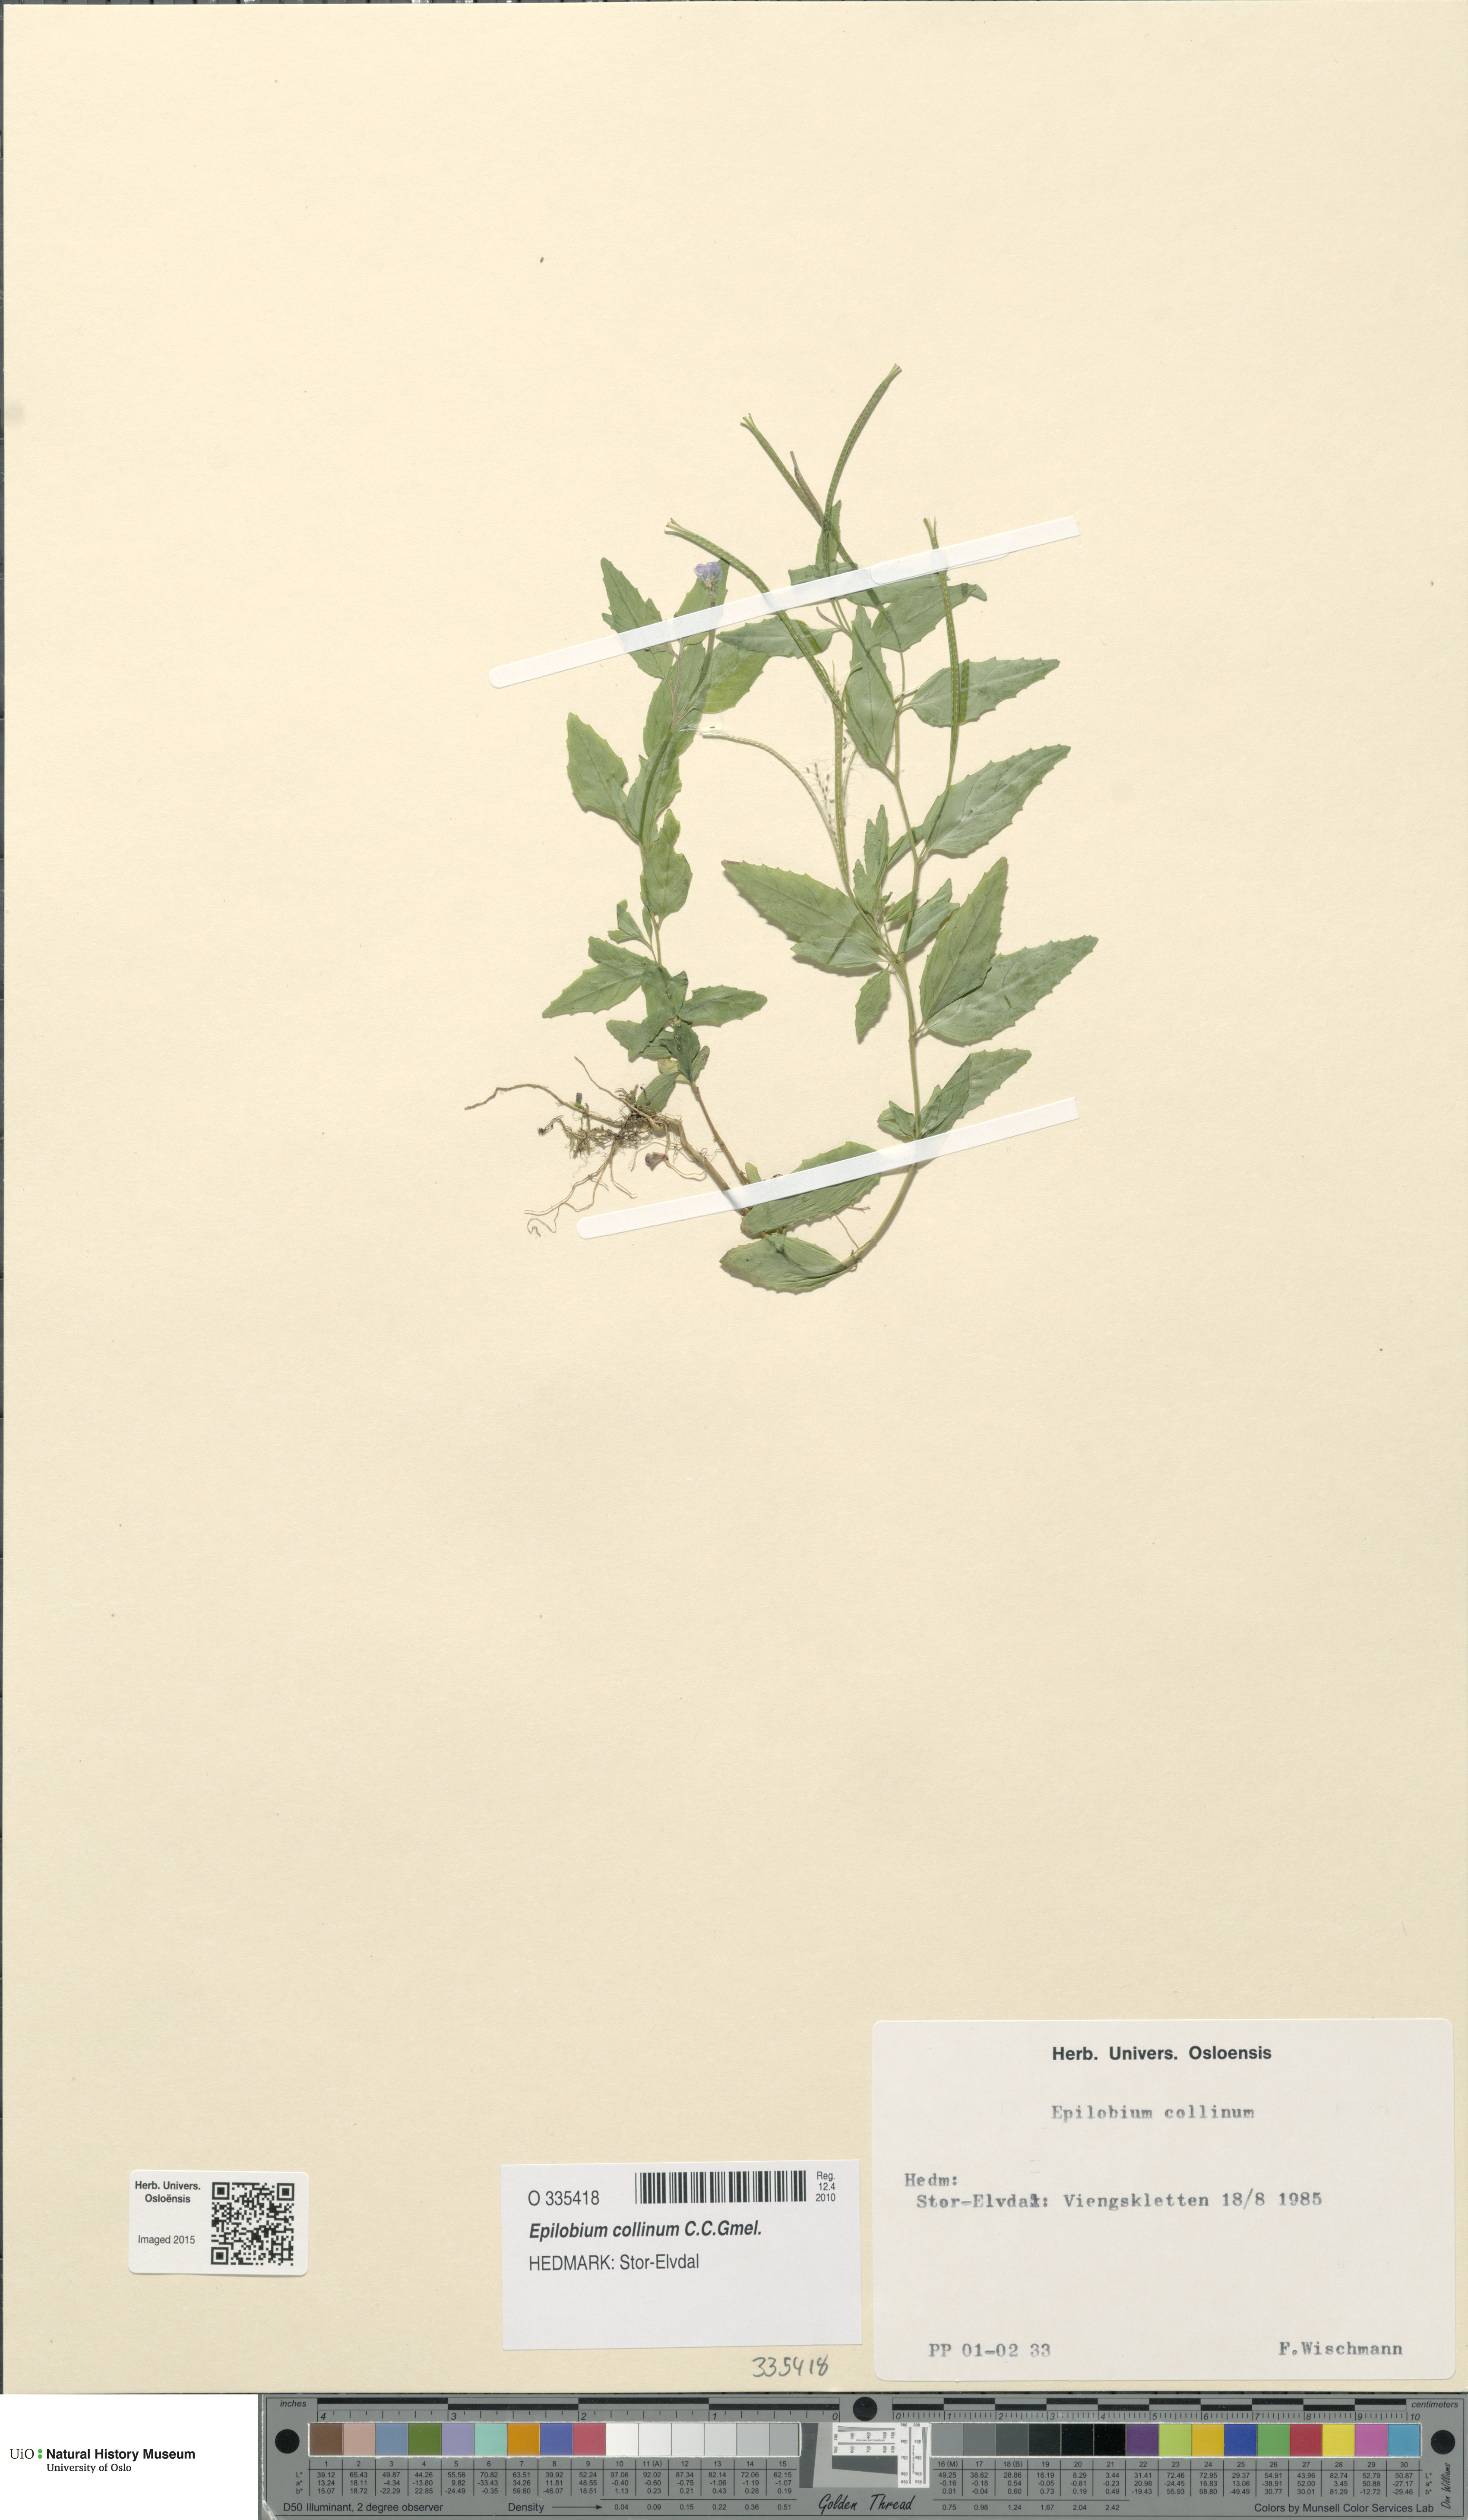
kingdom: Plantae
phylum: Tracheophyta
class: Magnoliopsida
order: Myrtales
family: Onagraceae
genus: Epilobium
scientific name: Epilobium collinum
